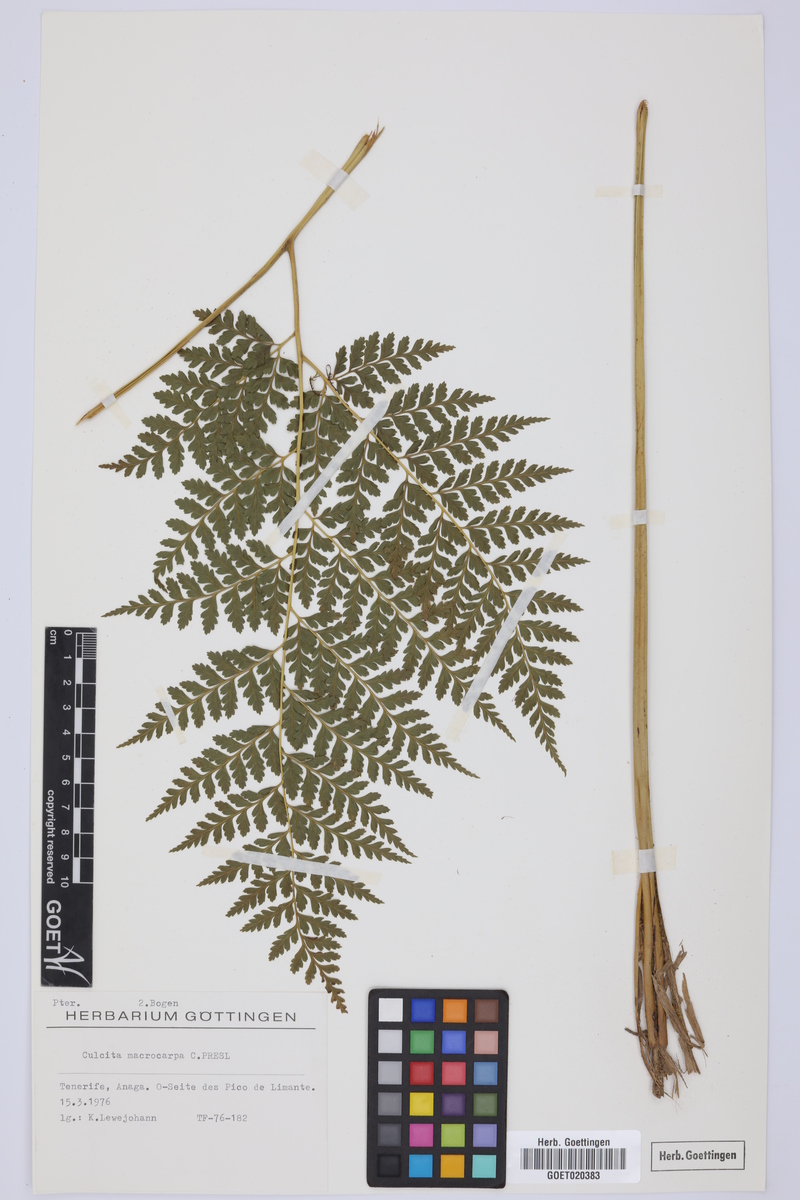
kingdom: Plantae
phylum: Tracheophyta
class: Polypodiopsida
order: Cyatheales
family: Culcitaceae
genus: Culcita
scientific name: Culcita macrocarpa
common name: Woolly tree fern
